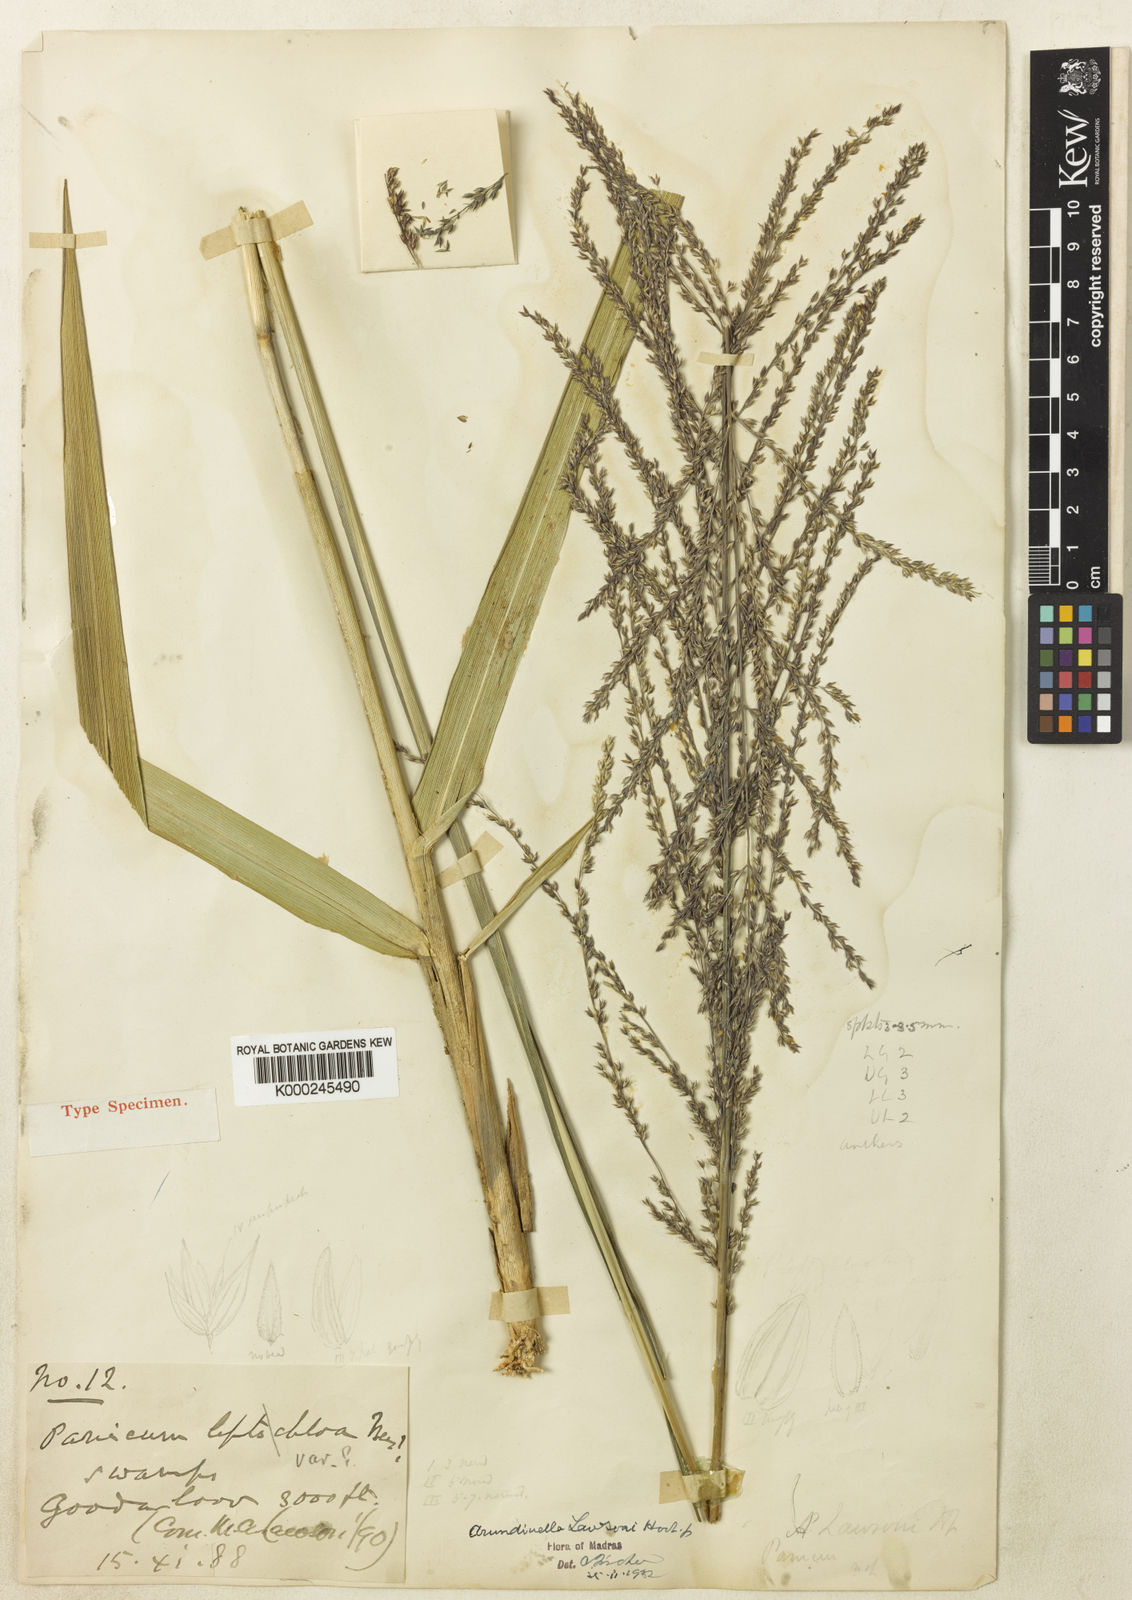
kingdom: Plantae
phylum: Tracheophyta
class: Liliopsida
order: Poales
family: Poaceae
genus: Arundinella
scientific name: Arundinella leptochloa
